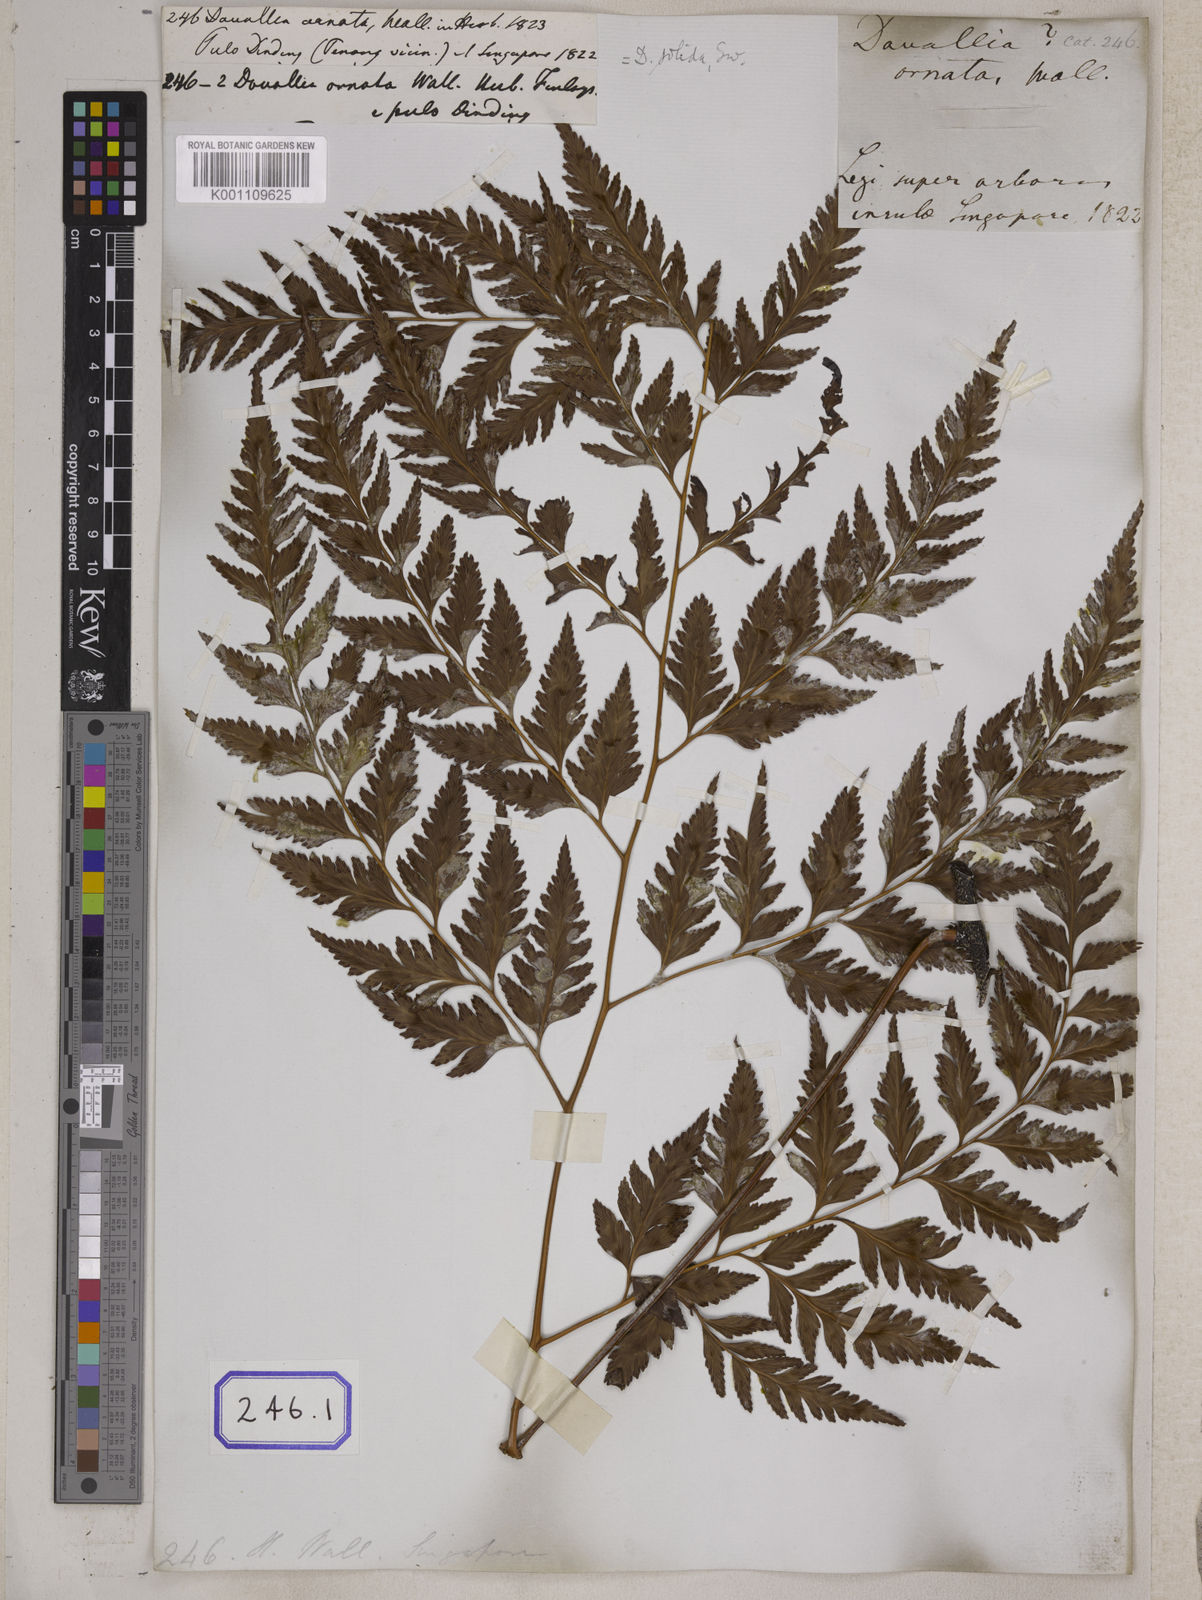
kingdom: Plantae
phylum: Tracheophyta
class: Polypodiopsida
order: Polypodiales
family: Davalliaceae
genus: Davallia
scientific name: Davallia solida
